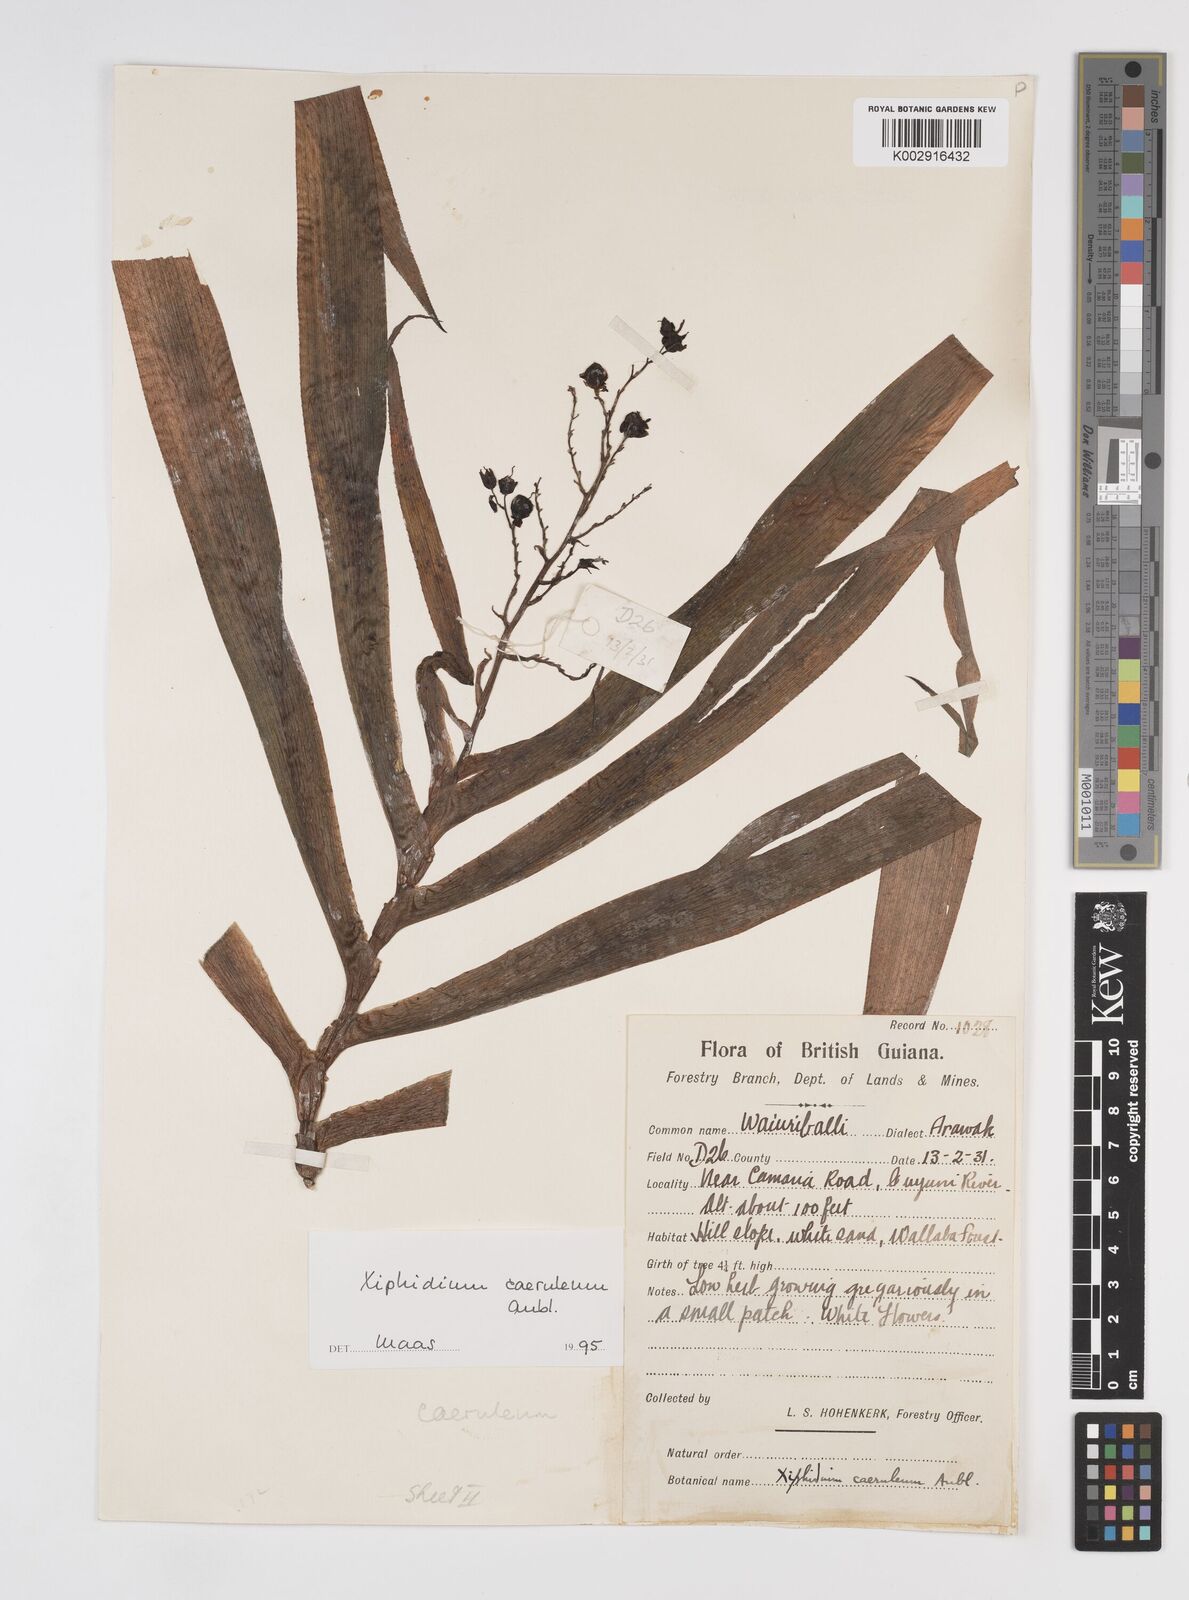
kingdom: Plantae
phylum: Tracheophyta
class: Liliopsida
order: Commelinales
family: Haemodoraceae
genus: Xiphidium
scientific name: Xiphidium caeruleum
